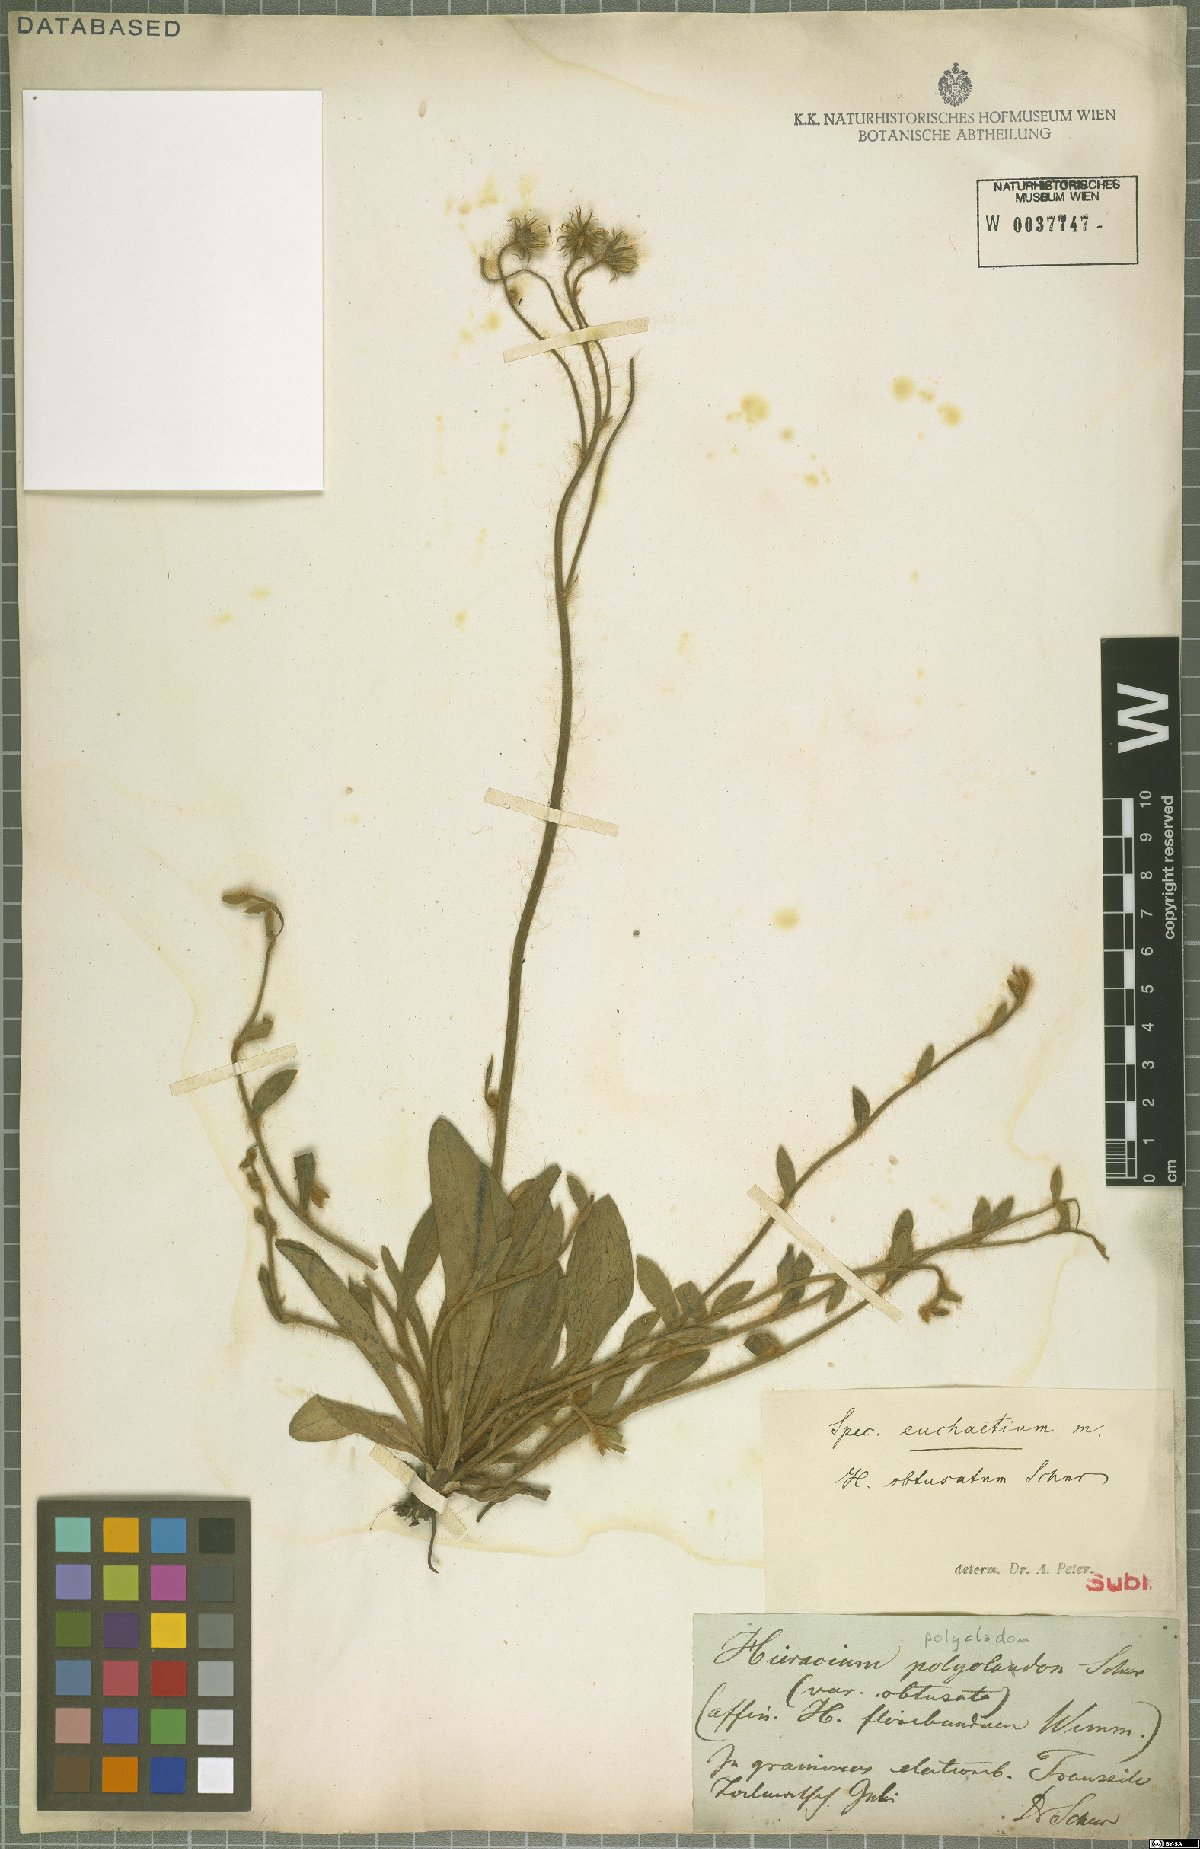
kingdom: Plantae
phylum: Tracheophyta
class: Magnoliopsida
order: Asterales
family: Asteraceae
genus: Hieracium
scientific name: Hieracium polycladon
